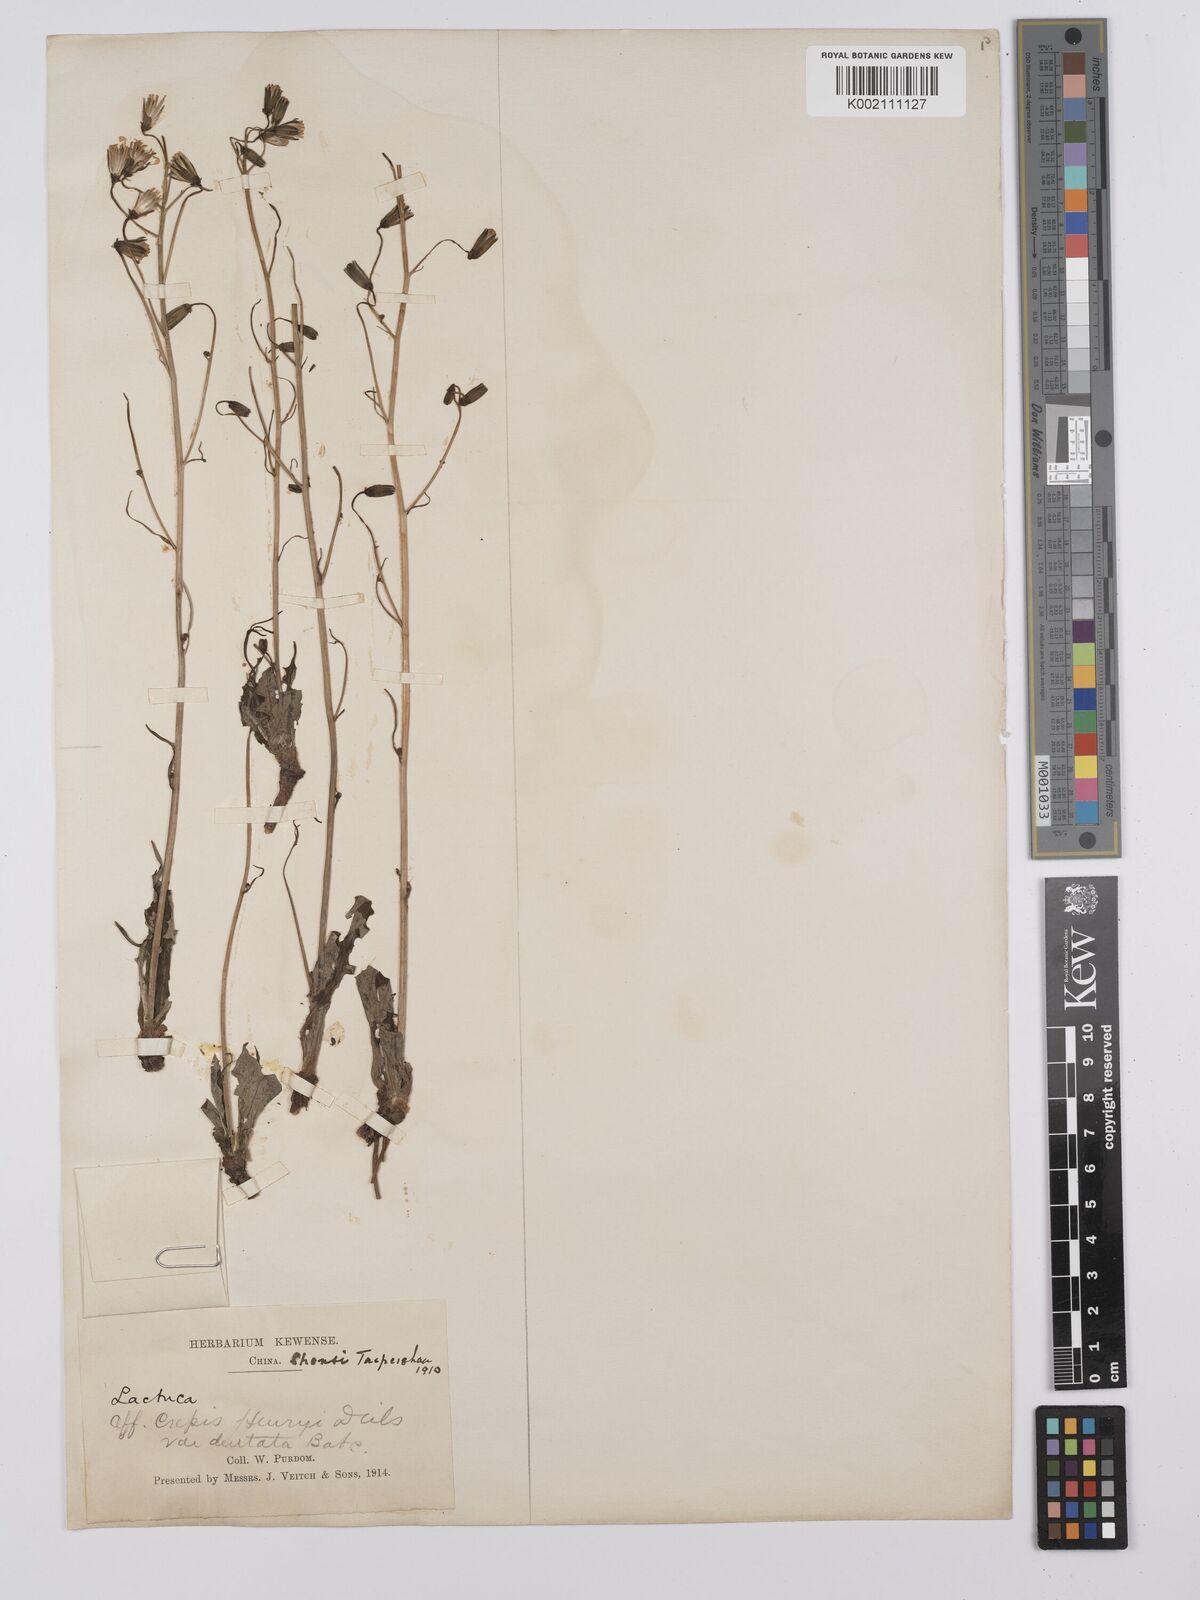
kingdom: Plantae
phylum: Tracheophyta
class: Magnoliopsida
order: Asterales
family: Asteraceae
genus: Youngia
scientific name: Youngia
